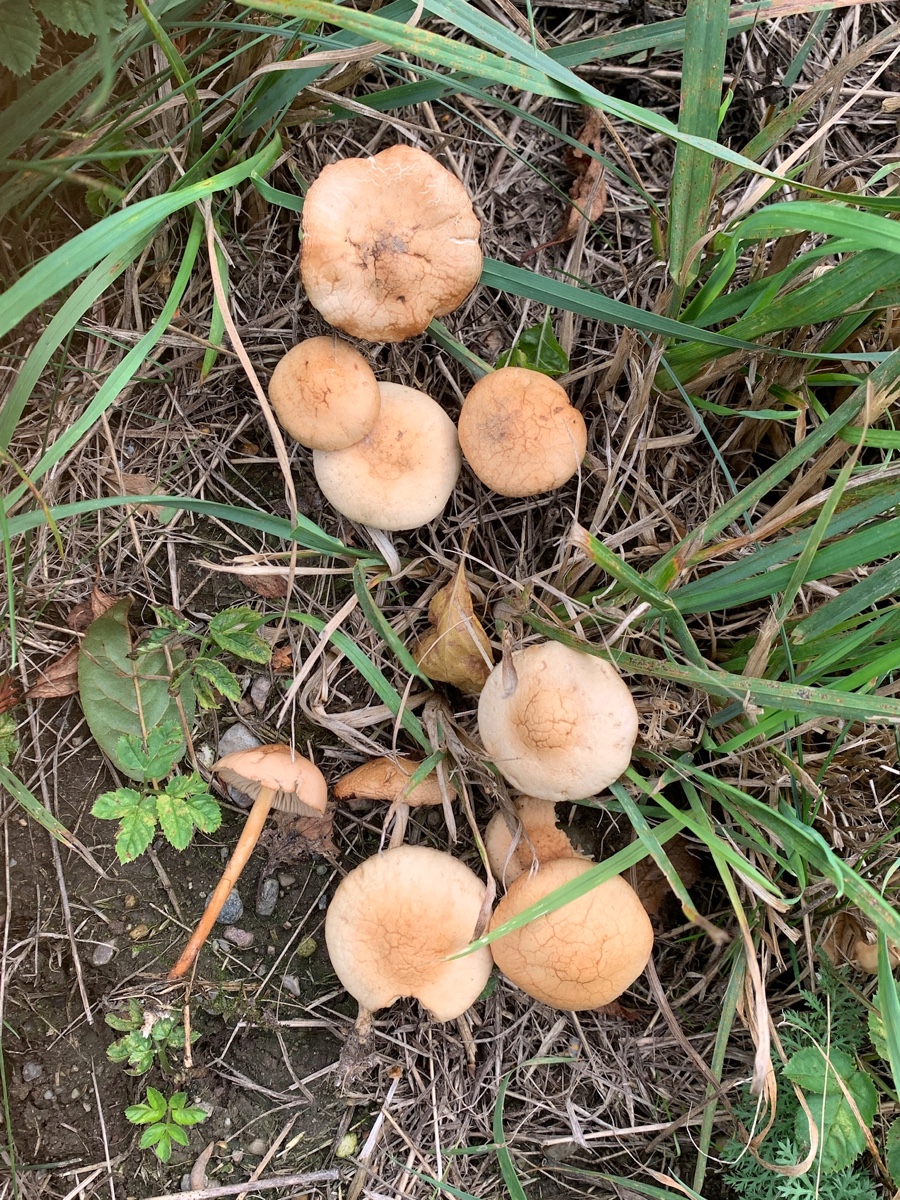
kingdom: Fungi
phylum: Basidiomycota
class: Agaricomycetes
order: Agaricales
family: Marasmiaceae
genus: Marasmius
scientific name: Marasmius oreades
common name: elledans-bruskhat
